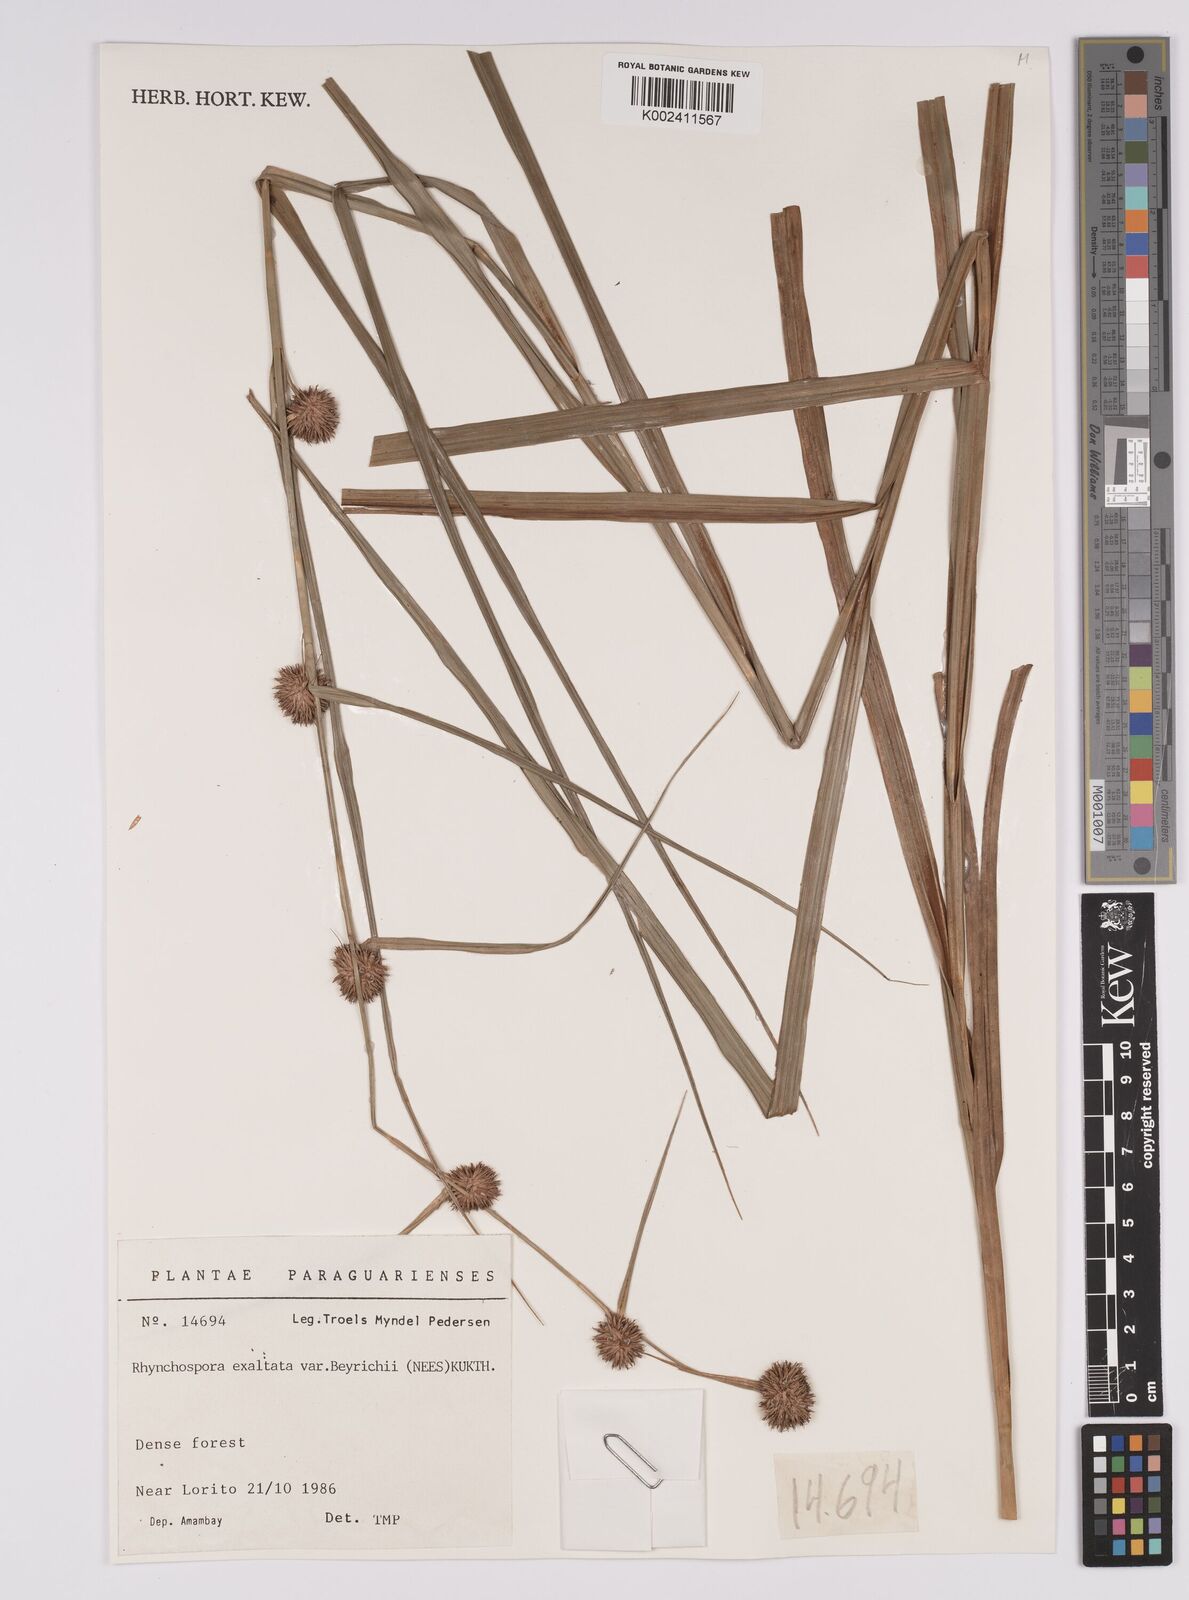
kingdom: Plantae
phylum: Tracheophyta
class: Liliopsida
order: Poales
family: Cyperaceae
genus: Rhynchospora
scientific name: Rhynchospora exaltata
